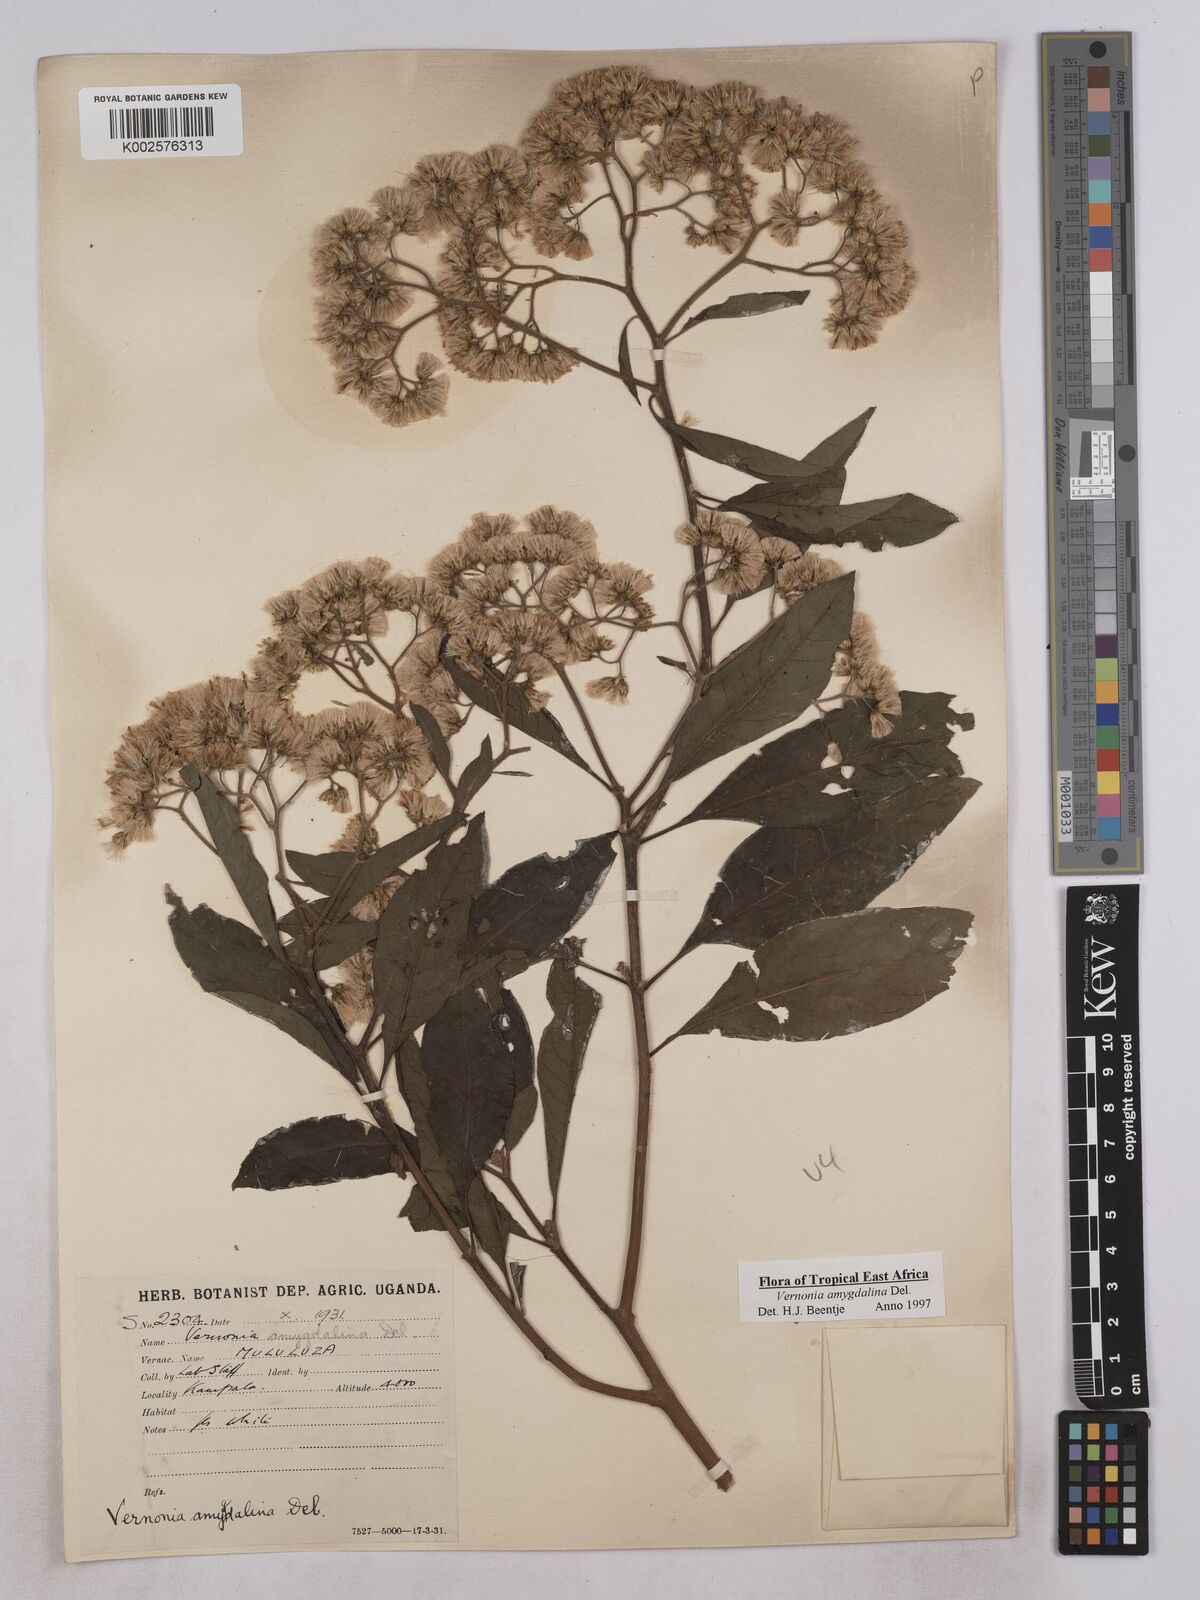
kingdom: Plantae
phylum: Tracheophyta
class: Magnoliopsida
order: Asterales
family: Asteraceae
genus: Gymnanthemum
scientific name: Gymnanthemum amygdalinum
